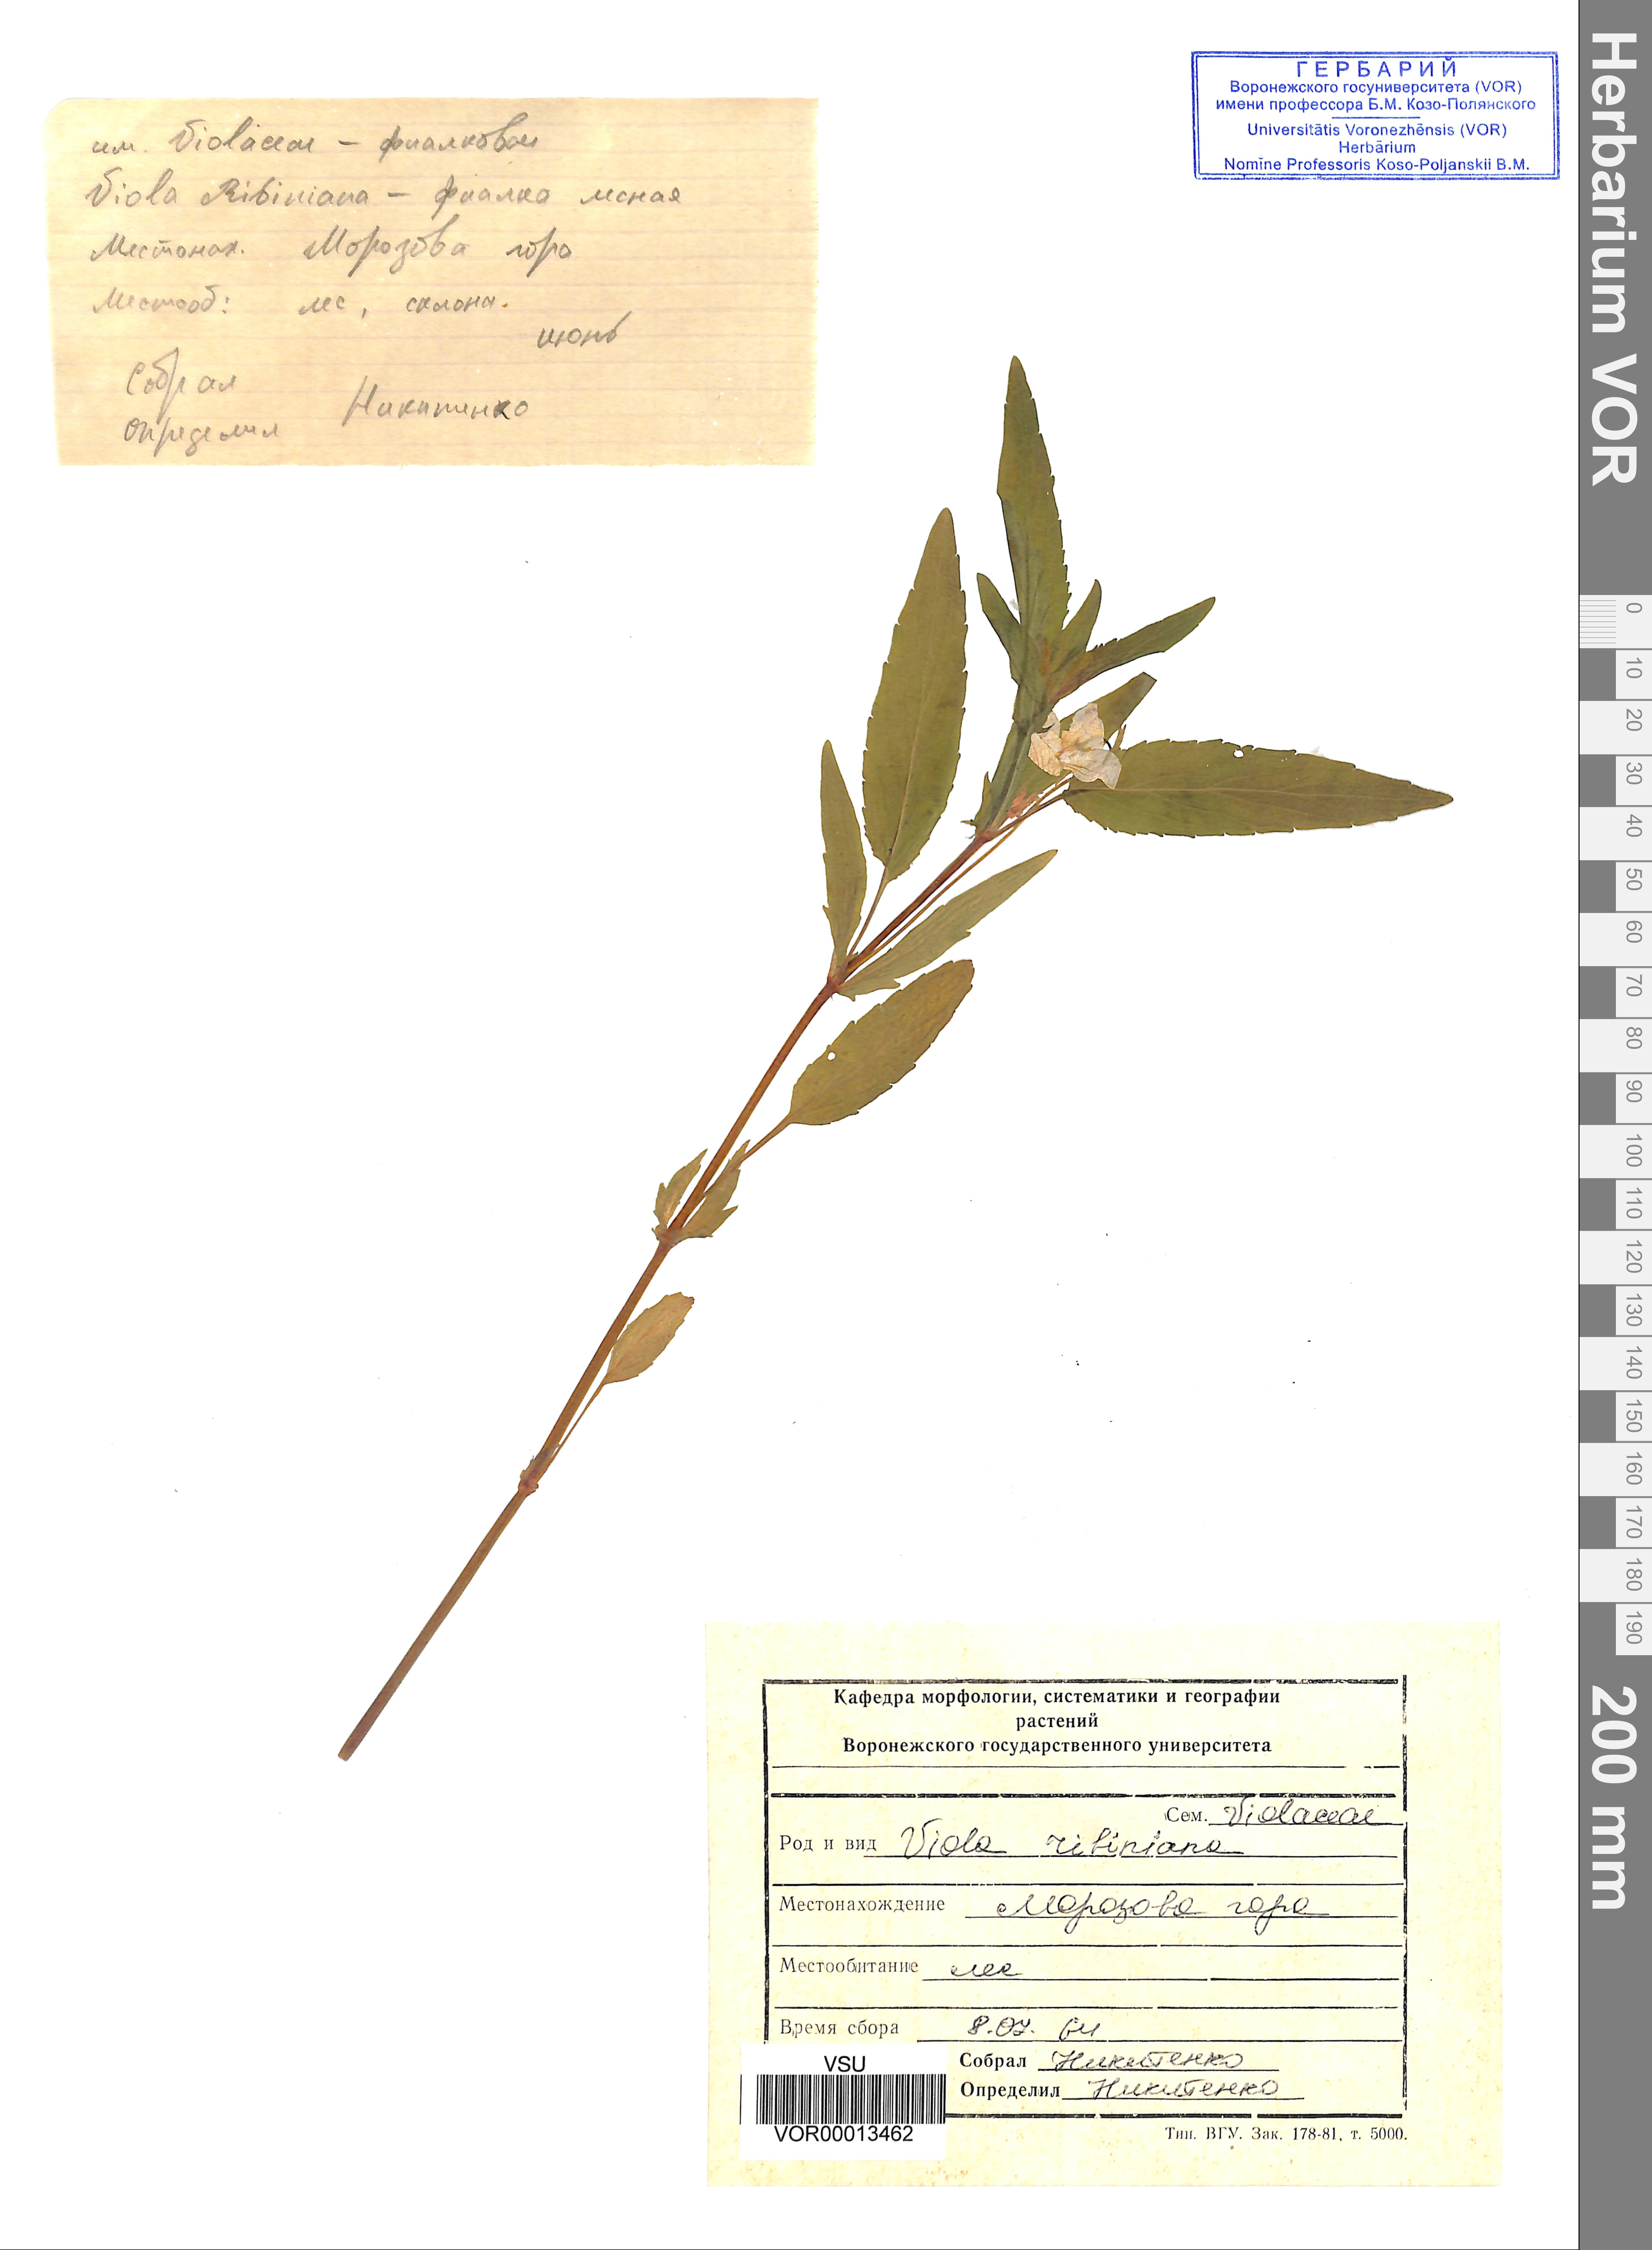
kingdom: Plantae
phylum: Tracheophyta
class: Magnoliopsida
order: Malpighiales
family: Violaceae
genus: Viola
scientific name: Viola riviniana
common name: Common dog-violet
